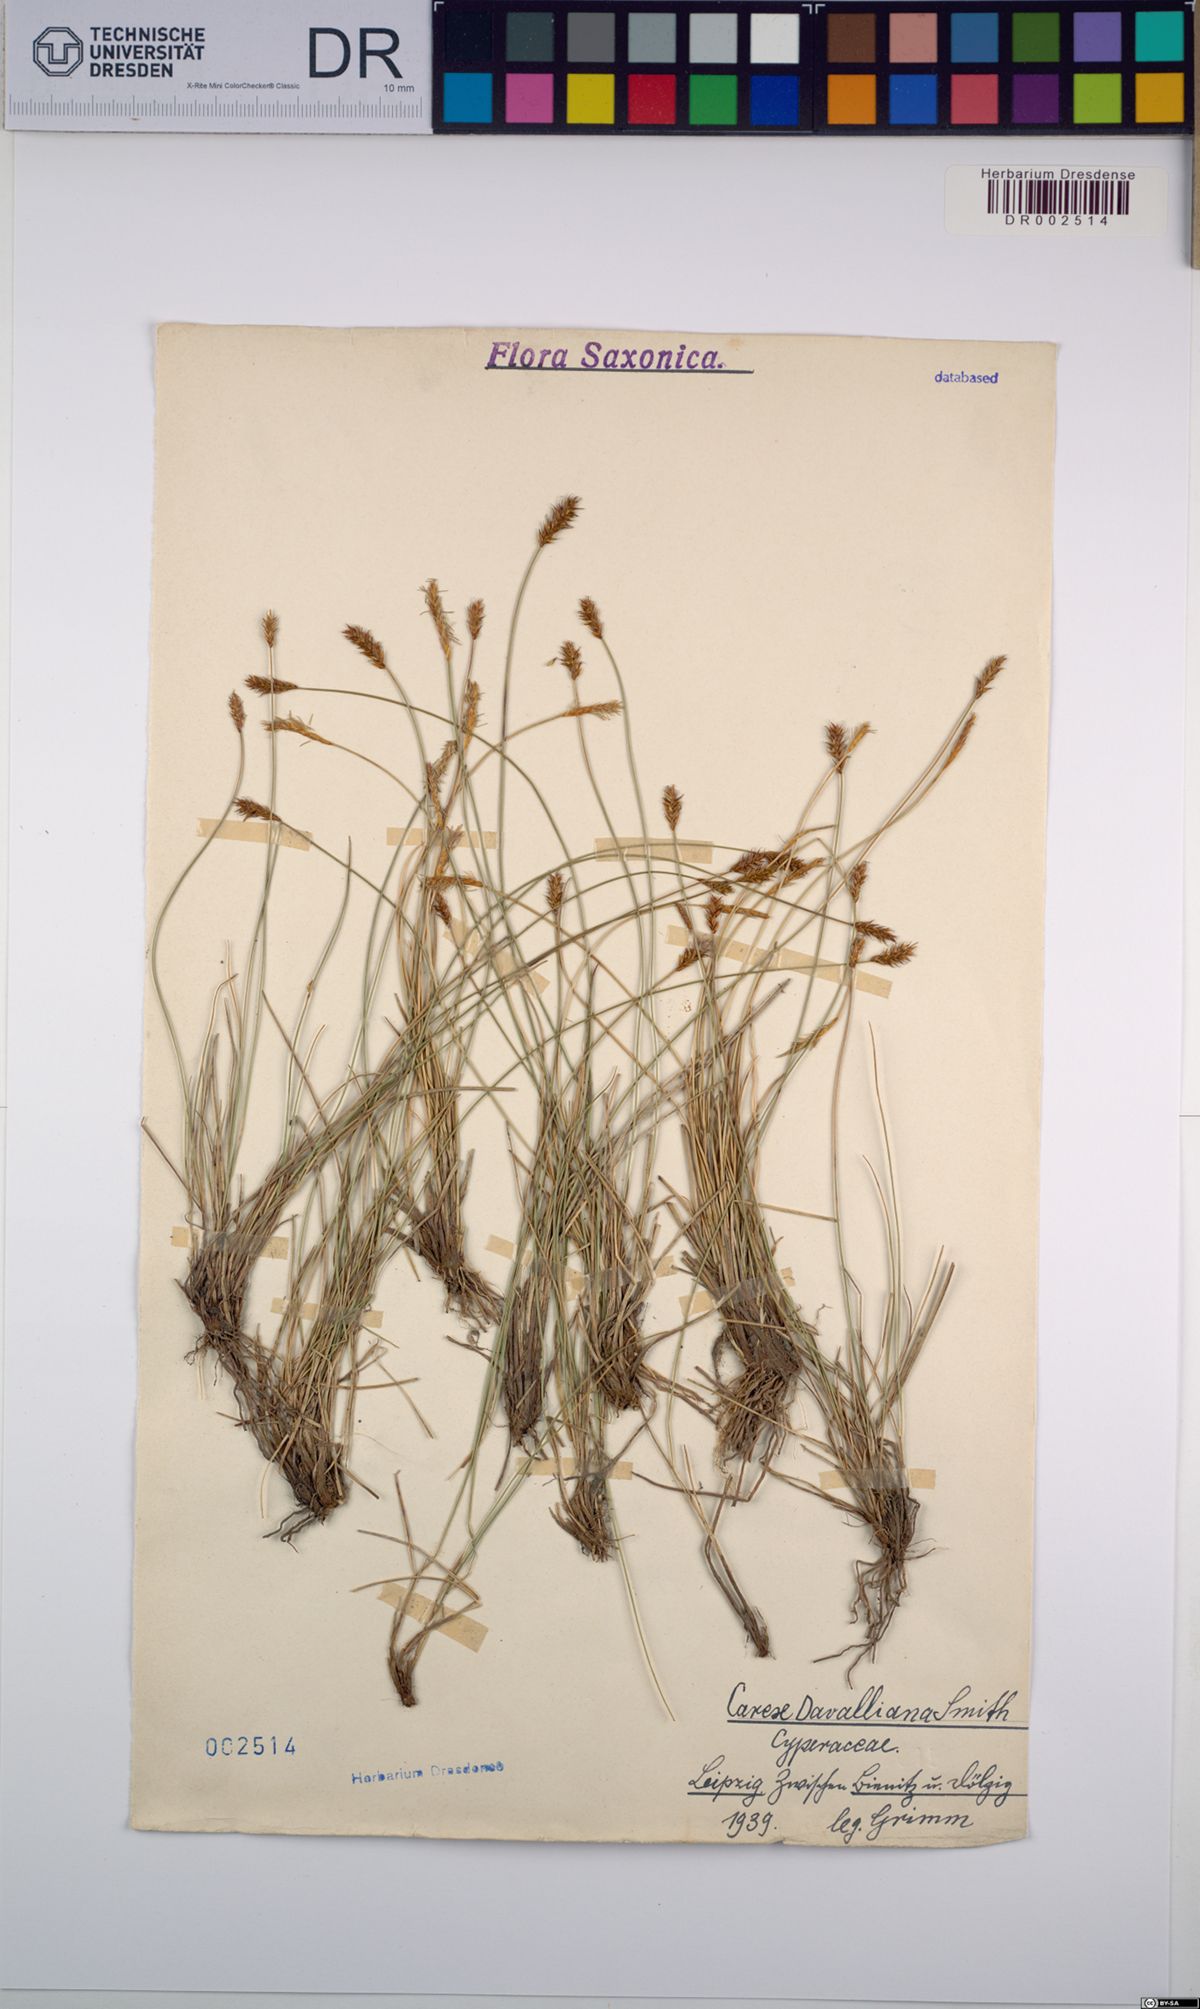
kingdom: Plantae
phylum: Tracheophyta
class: Liliopsida
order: Poales
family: Cyperaceae
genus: Carex
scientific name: Carex davalliana
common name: Davall's sedge
